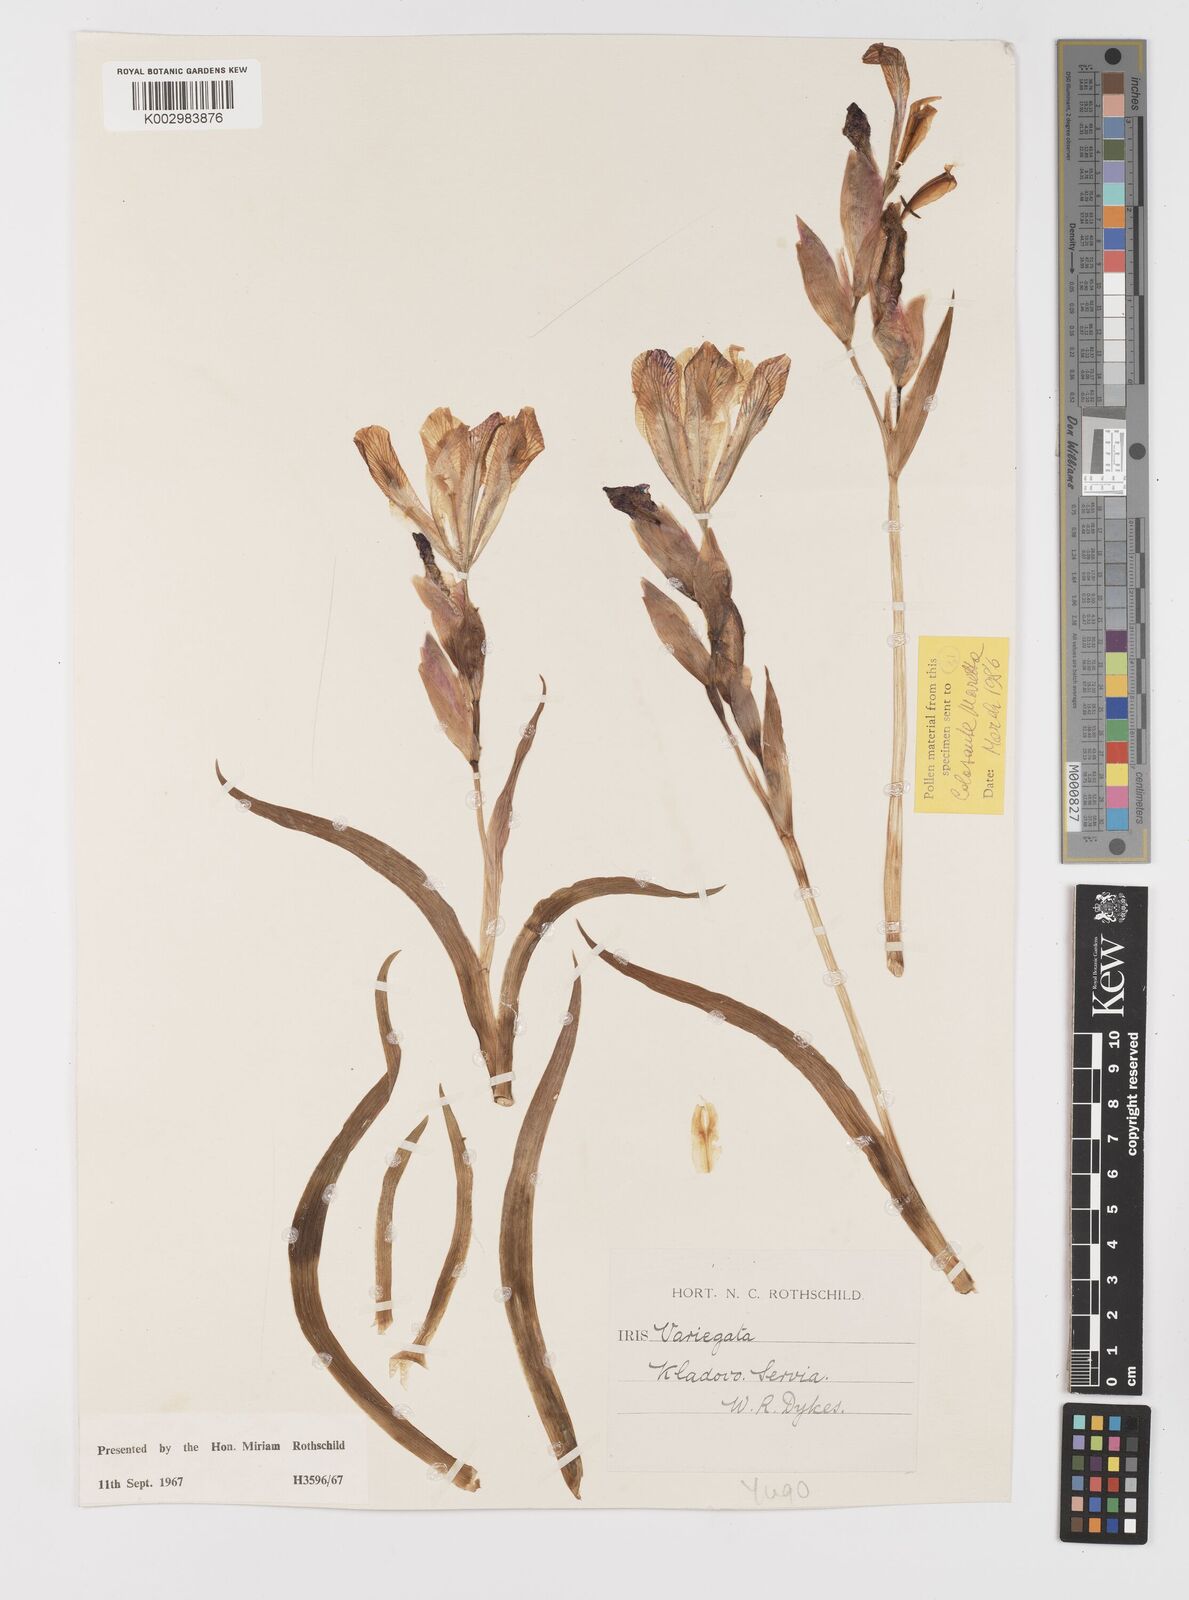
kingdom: Plantae
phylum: Tracheophyta
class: Liliopsida
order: Asparagales
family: Iridaceae
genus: Iris
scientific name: Iris variegata
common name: Hungarian iris
